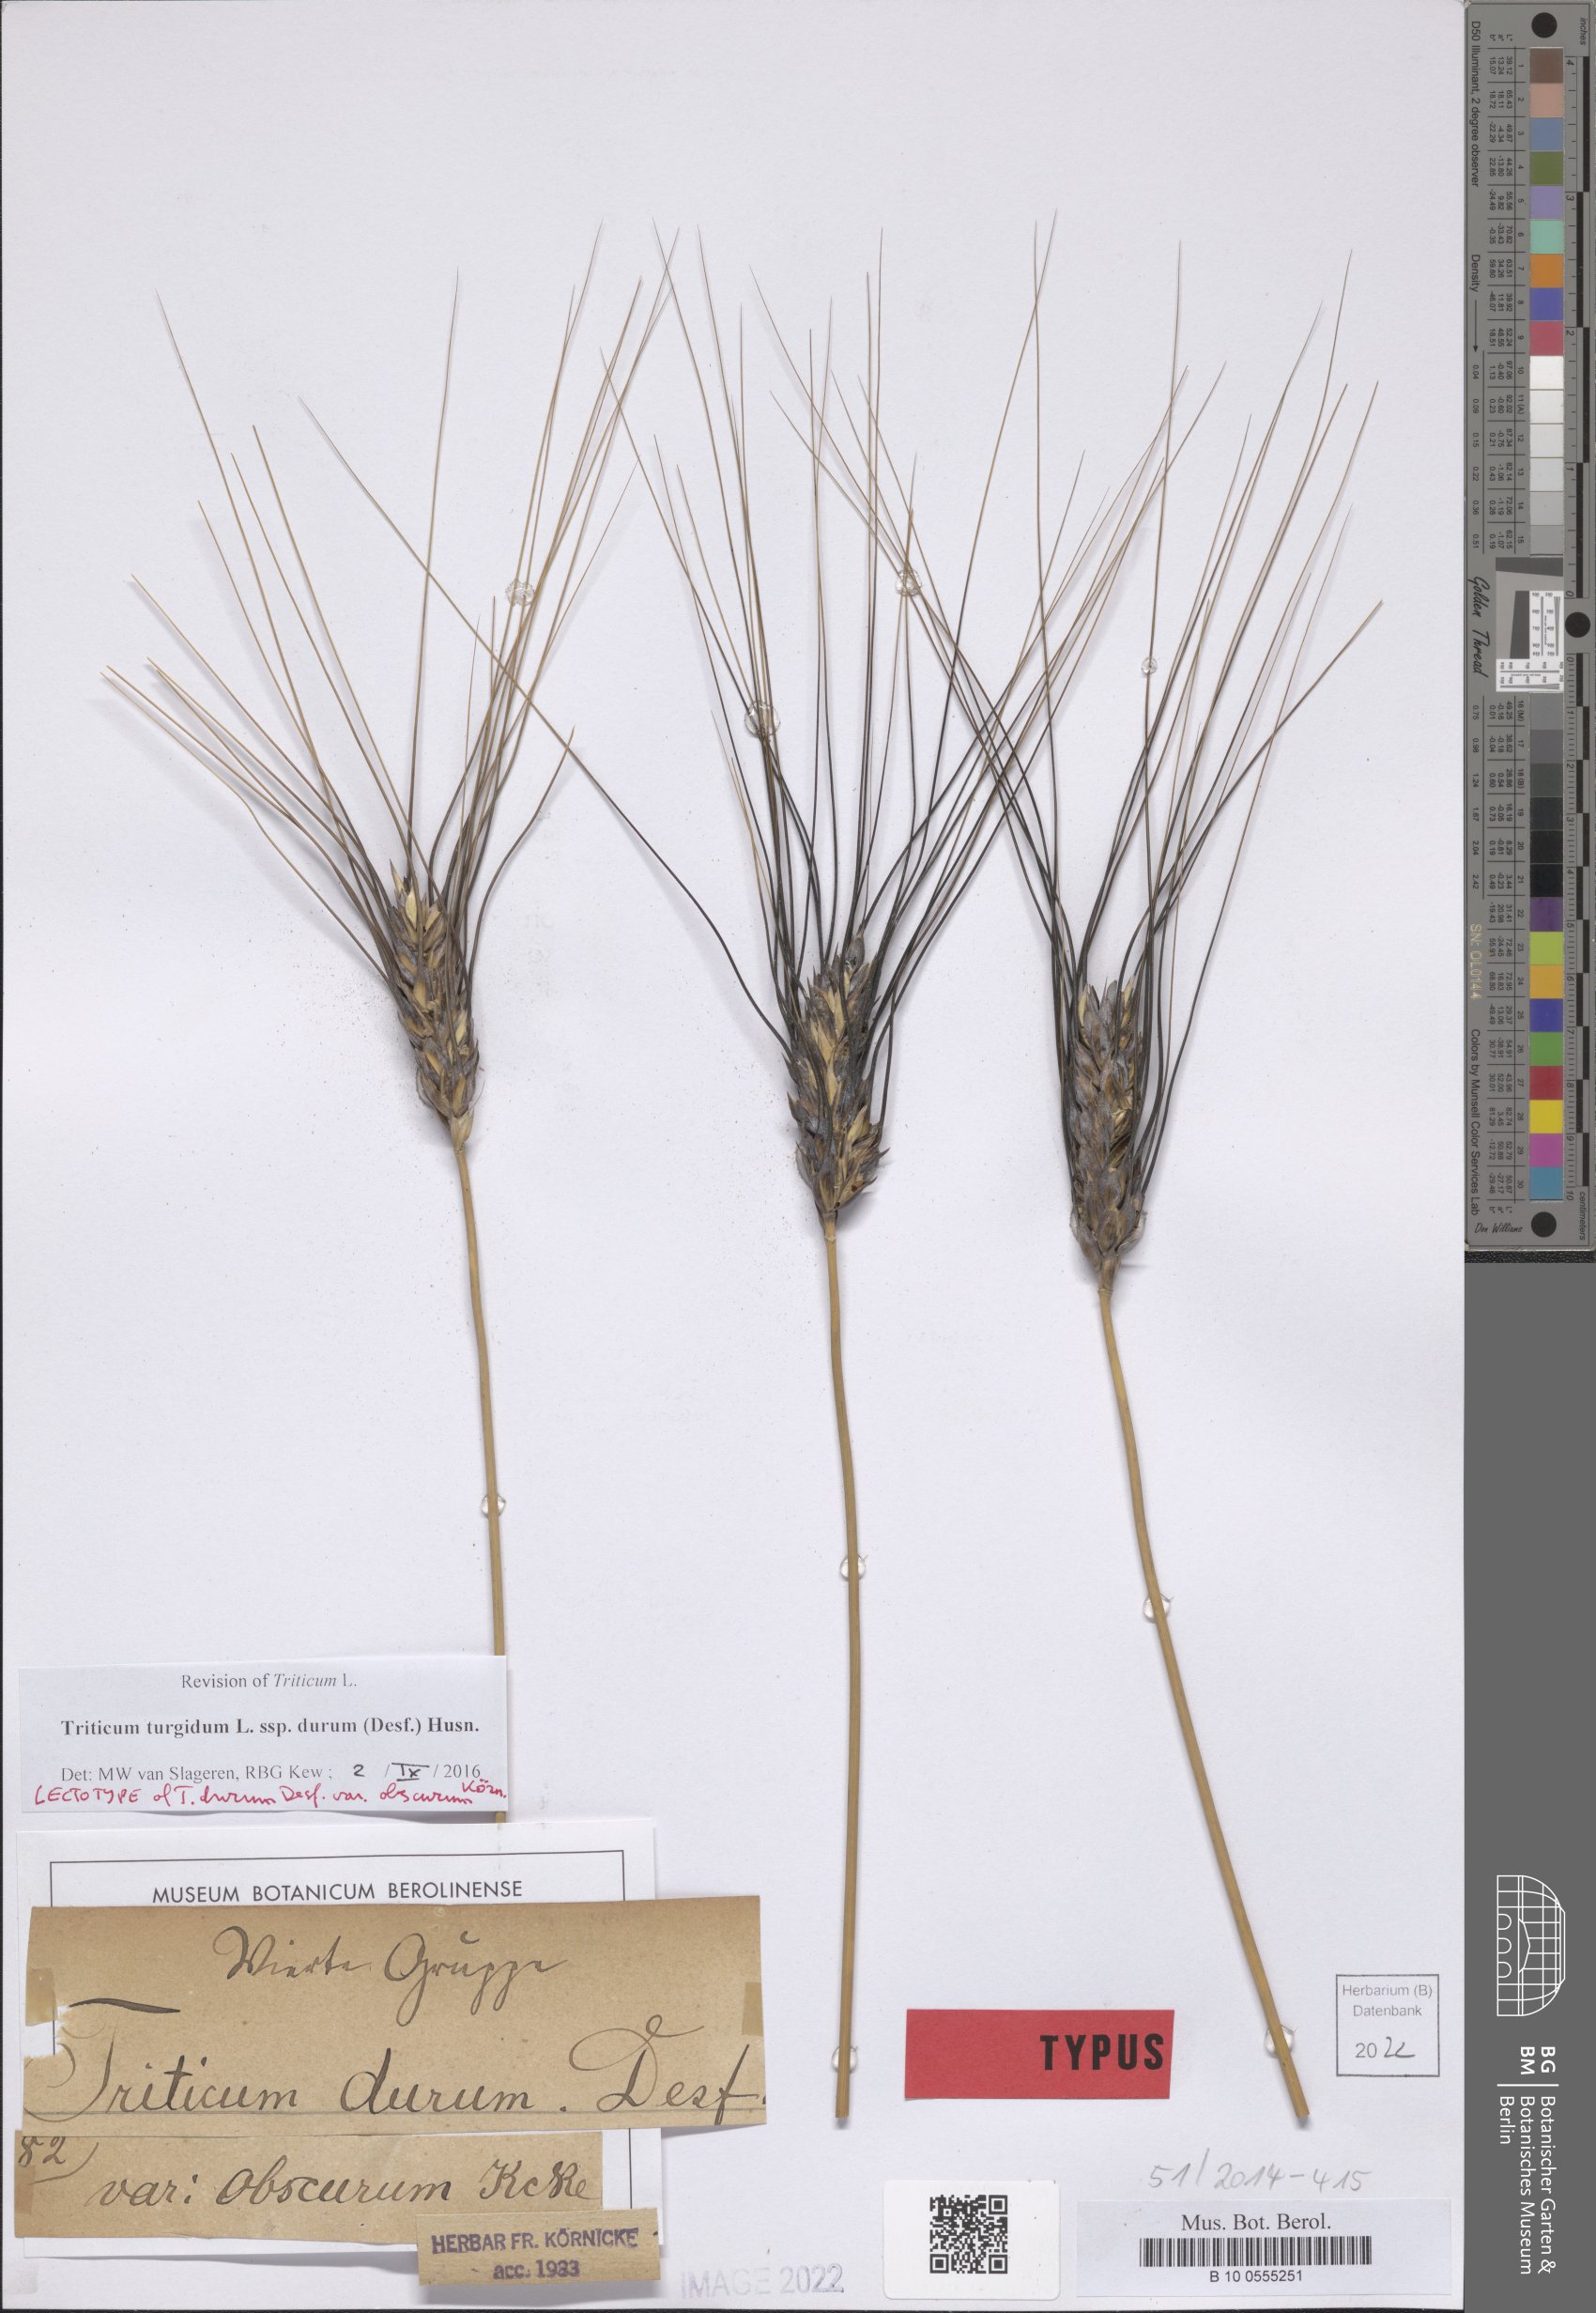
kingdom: Plantae
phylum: Tracheophyta
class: Liliopsida
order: Poales
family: Poaceae
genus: Triticum
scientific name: Triticum turgidum
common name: Rivet wheat
